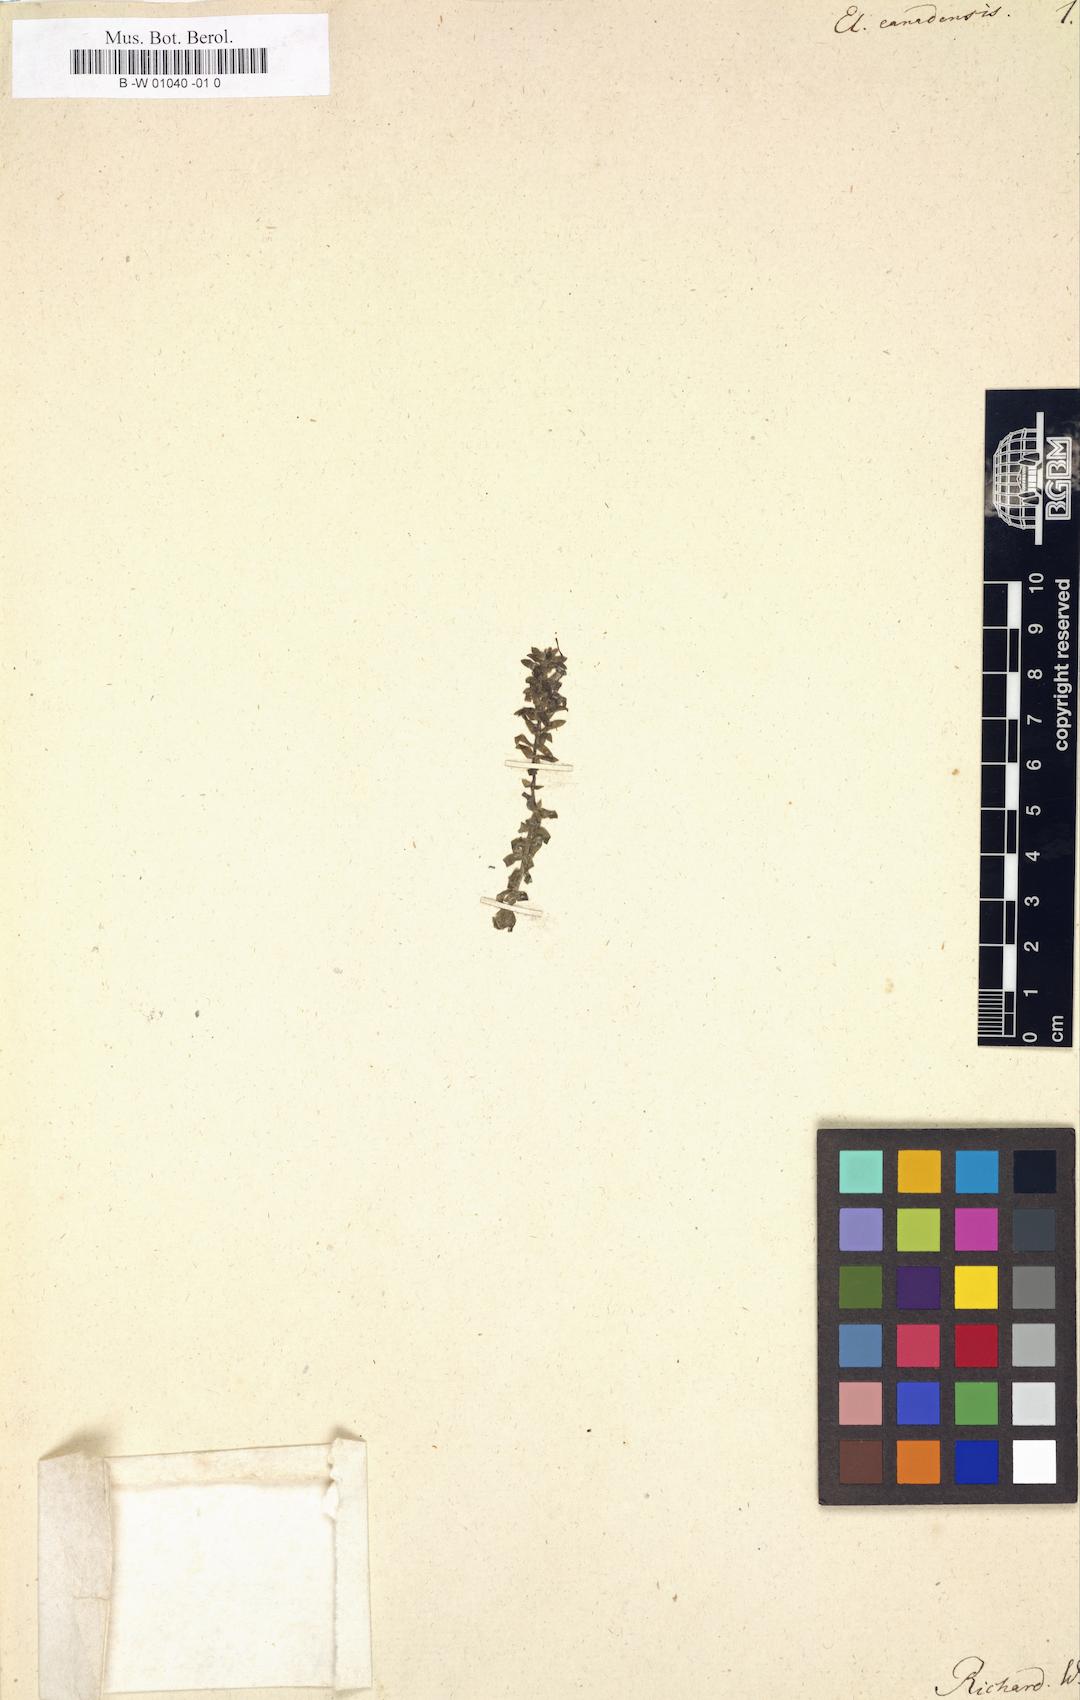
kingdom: Plantae
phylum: Tracheophyta
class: Liliopsida
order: Alismatales
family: Hydrocharitaceae
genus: Elodea
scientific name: Elodea canadensis
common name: Canadian waterweed
